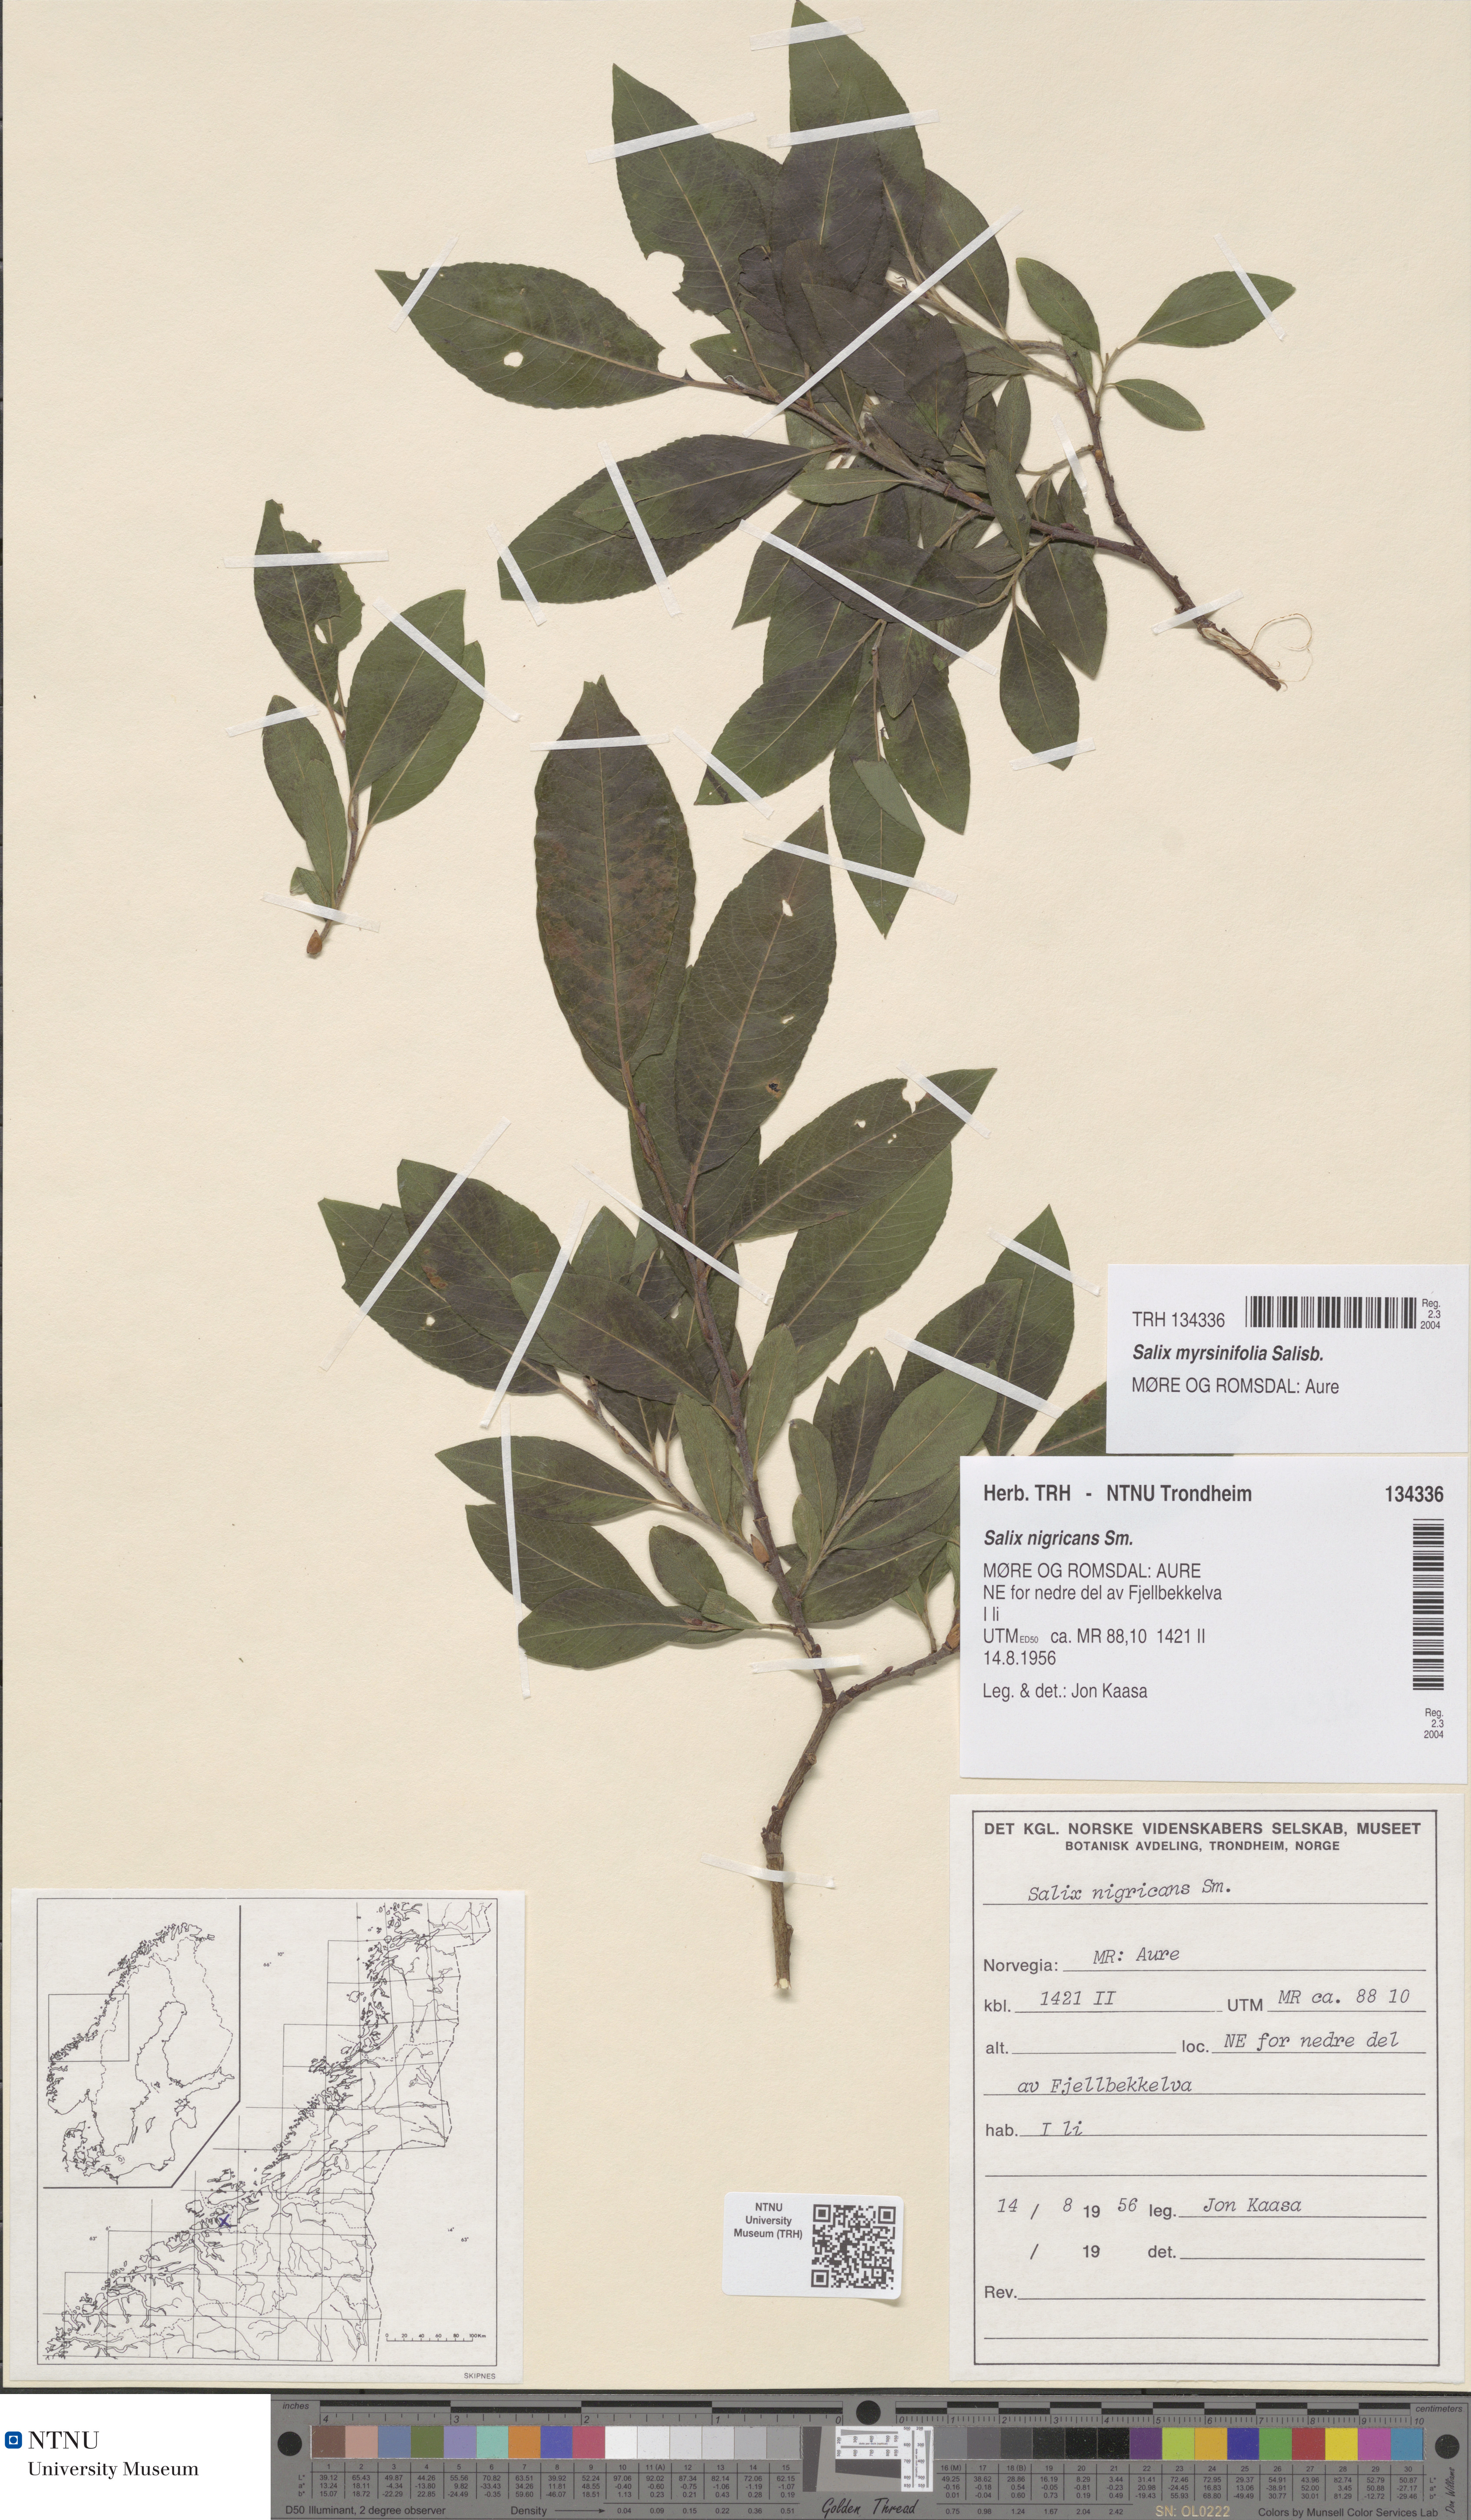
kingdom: Plantae
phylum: Tracheophyta
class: Magnoliopsida
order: Malpighiales
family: Salicaceae
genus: Salix
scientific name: Salix myrsinifolia
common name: Dark-leaved willow
